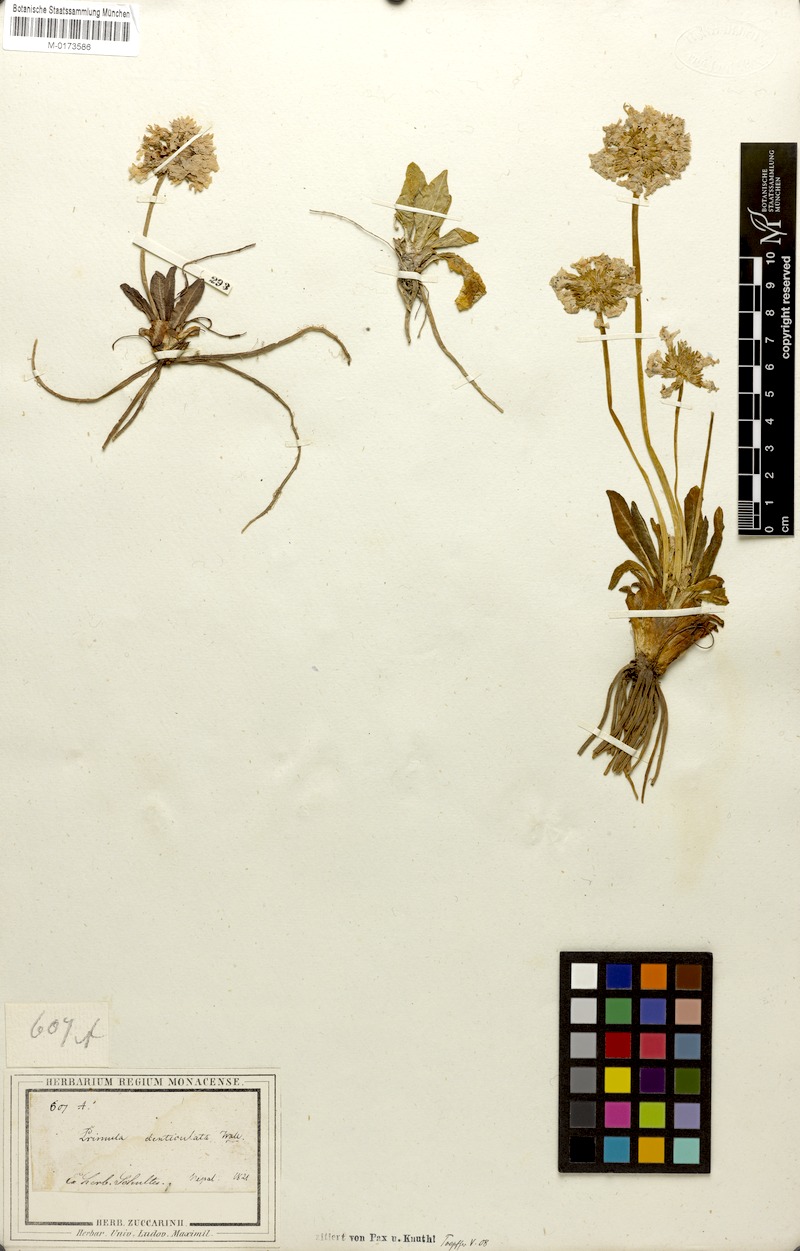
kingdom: Plantae
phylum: Tracheophyta
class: Magnoliopsida
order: Ericales
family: Primulaceae
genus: Primula
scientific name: Primula denticulata
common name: Drumstick primula
